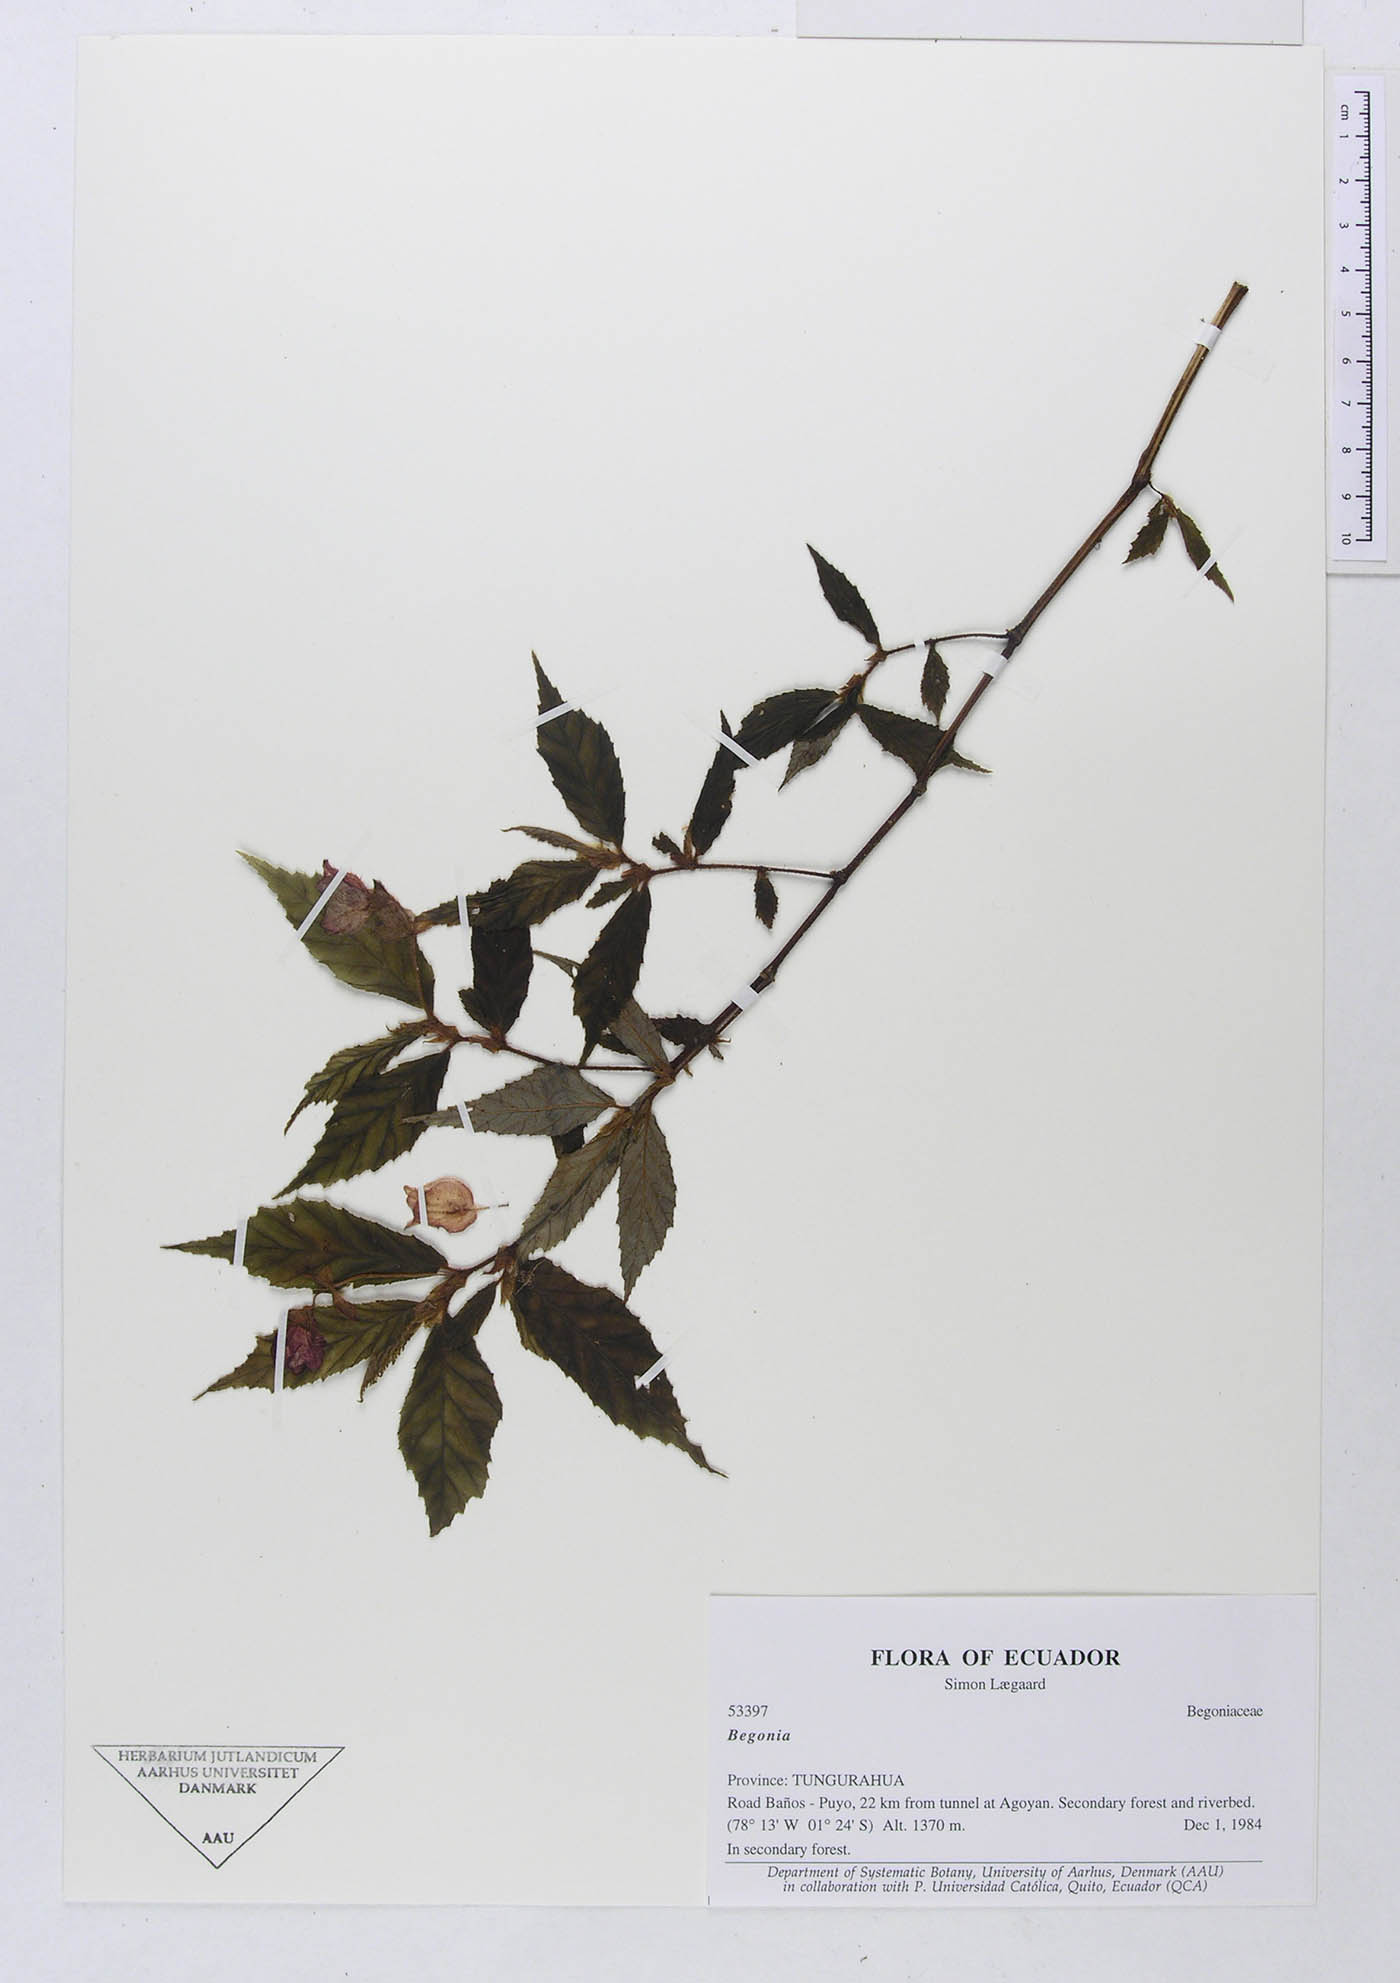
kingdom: Plantae
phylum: Tracheophyta
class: Magnoliopsida
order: Cucurbitales
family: Begoniaceae
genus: Begonia
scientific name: Begonia
